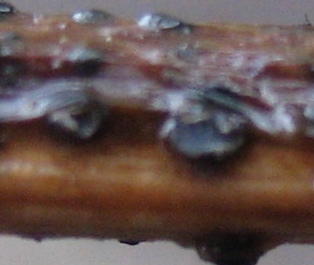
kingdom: Fungi
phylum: Ascomycota
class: Leotiomycetes
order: Helotiales
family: Ploettnerulaceae
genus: Pyrenopeziza
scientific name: Pyrenopeziza petiolaris
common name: ahorn-kerneskive
